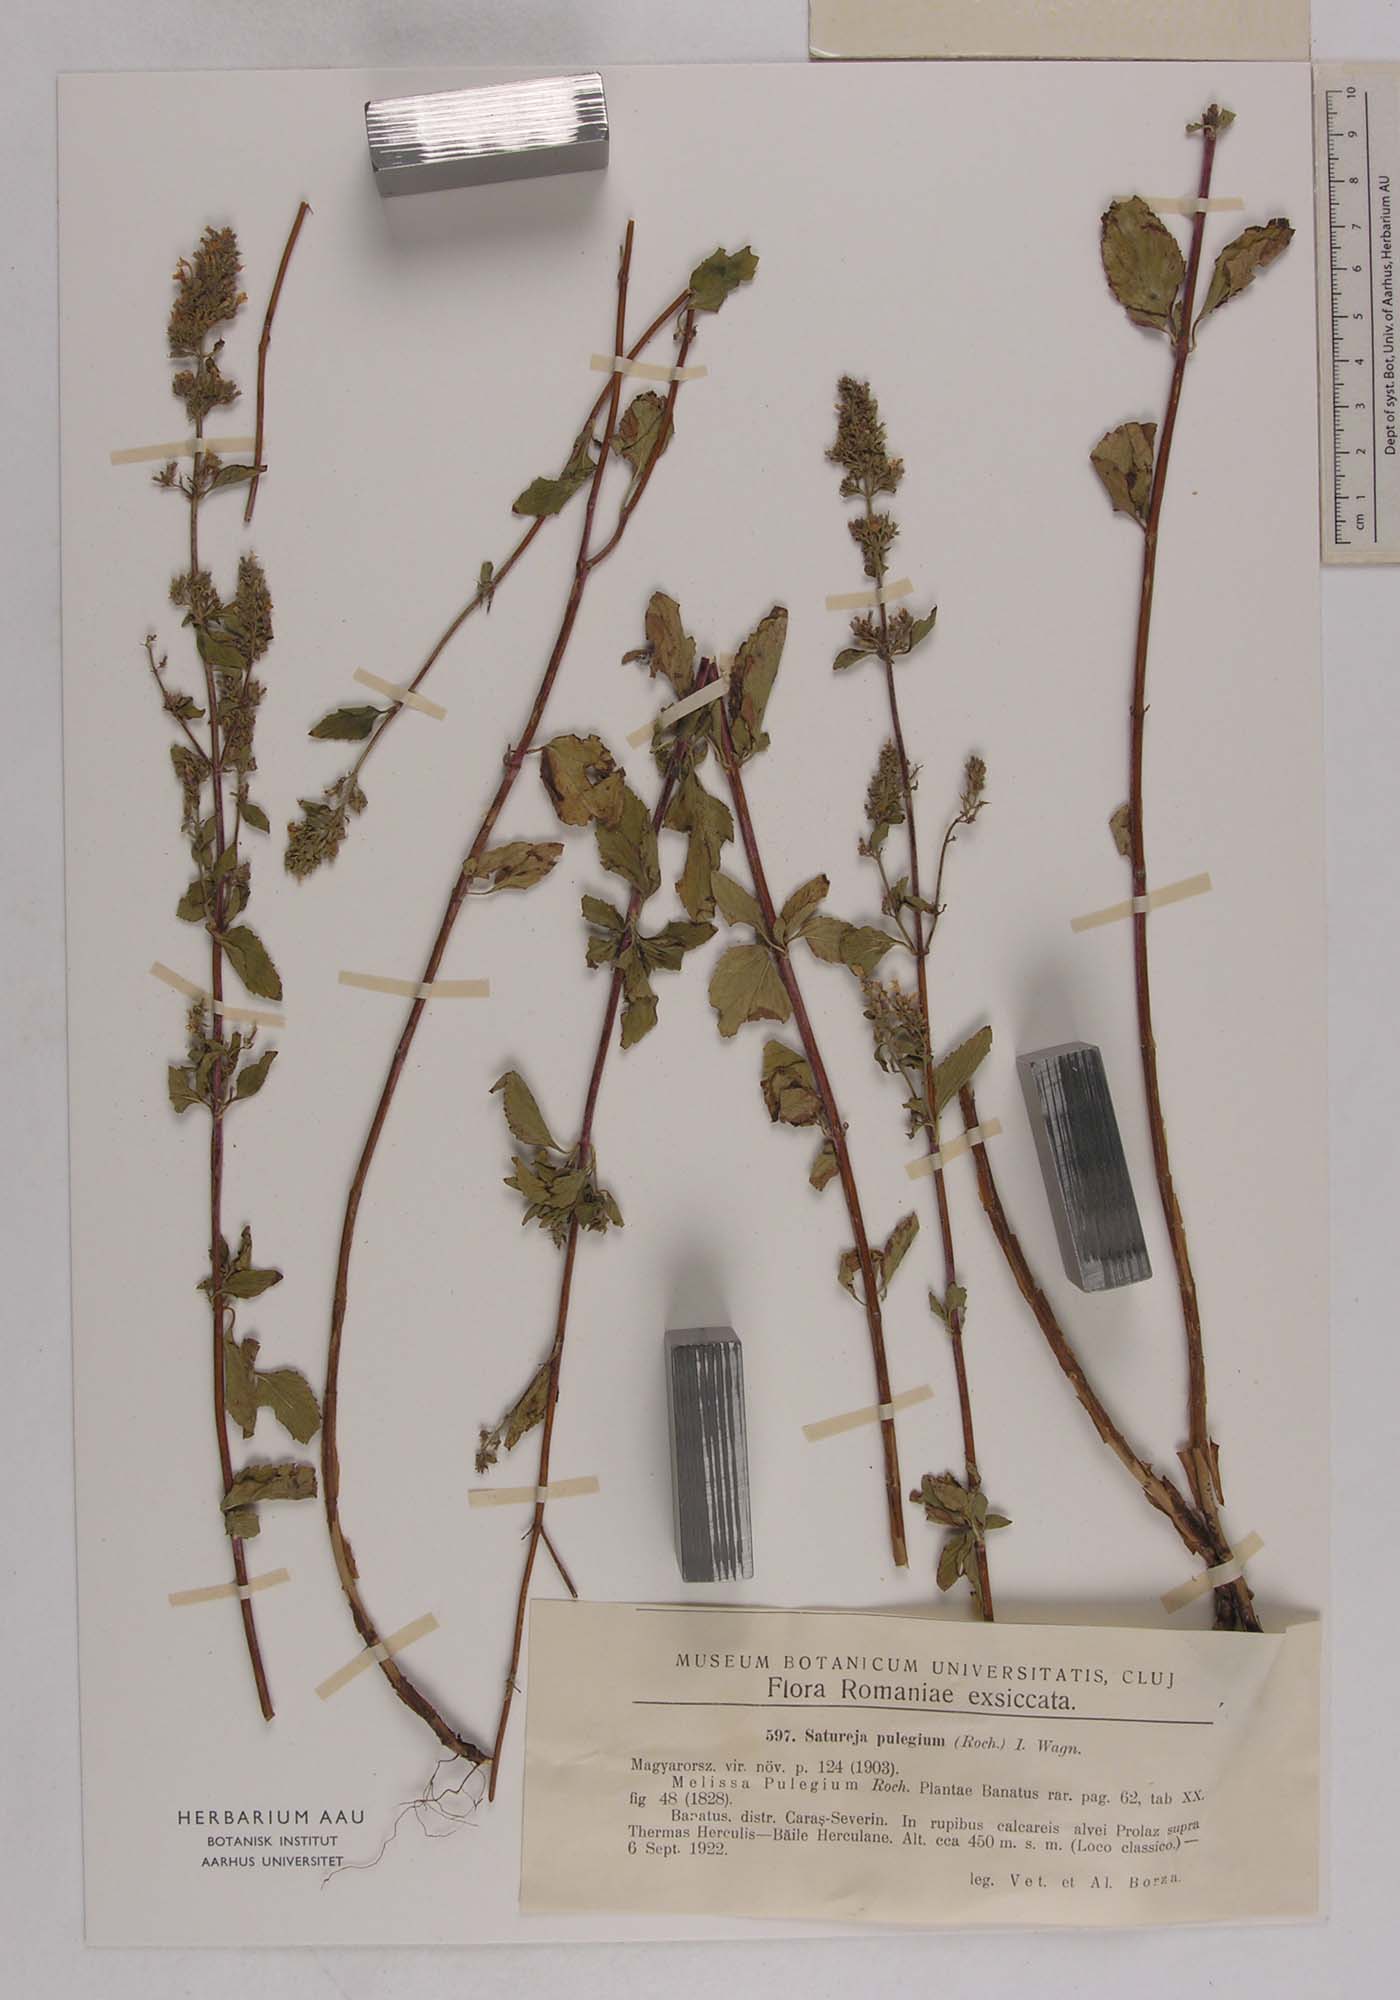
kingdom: Plantae
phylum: Tracheophyta
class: Magnoliopsida
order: Lamiales
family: Lamiaceae
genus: Clinopodium
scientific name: Clinopodium pulegium
